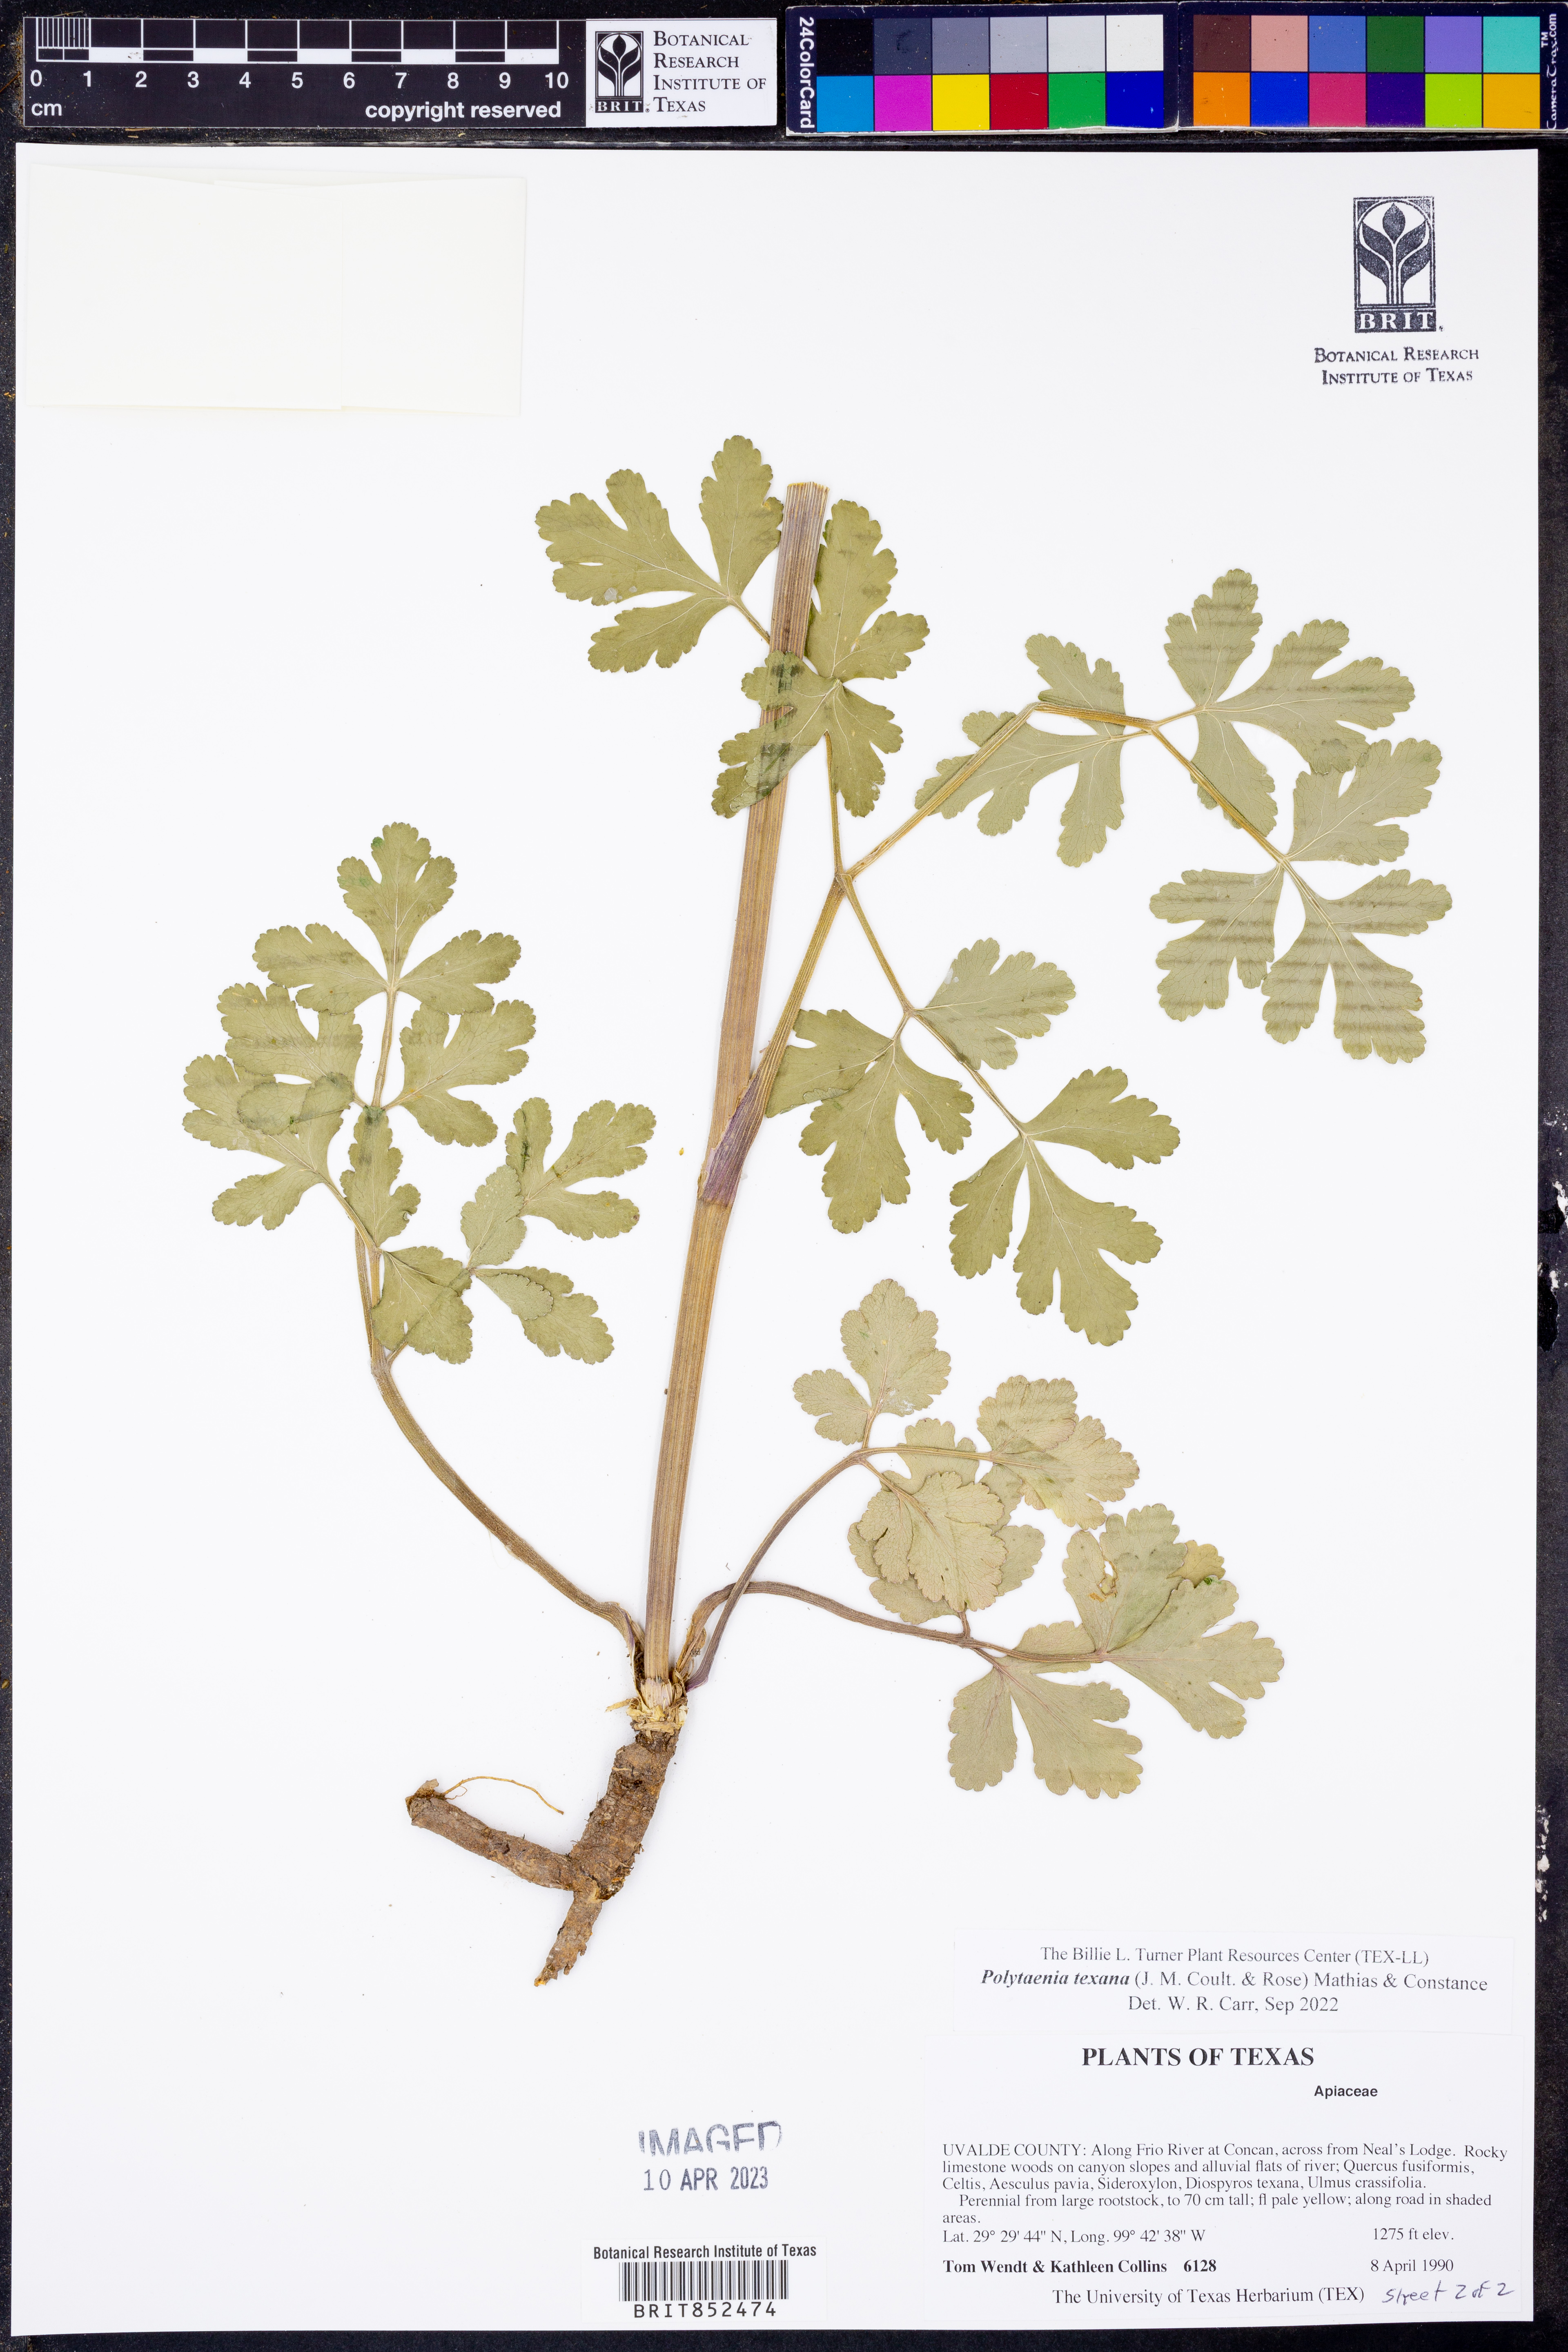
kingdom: Plantae
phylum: Tracheophyta
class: Magnoliopsida
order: Apiales
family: Apiaceae
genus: Polytaenia
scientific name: Polytaenia texana
